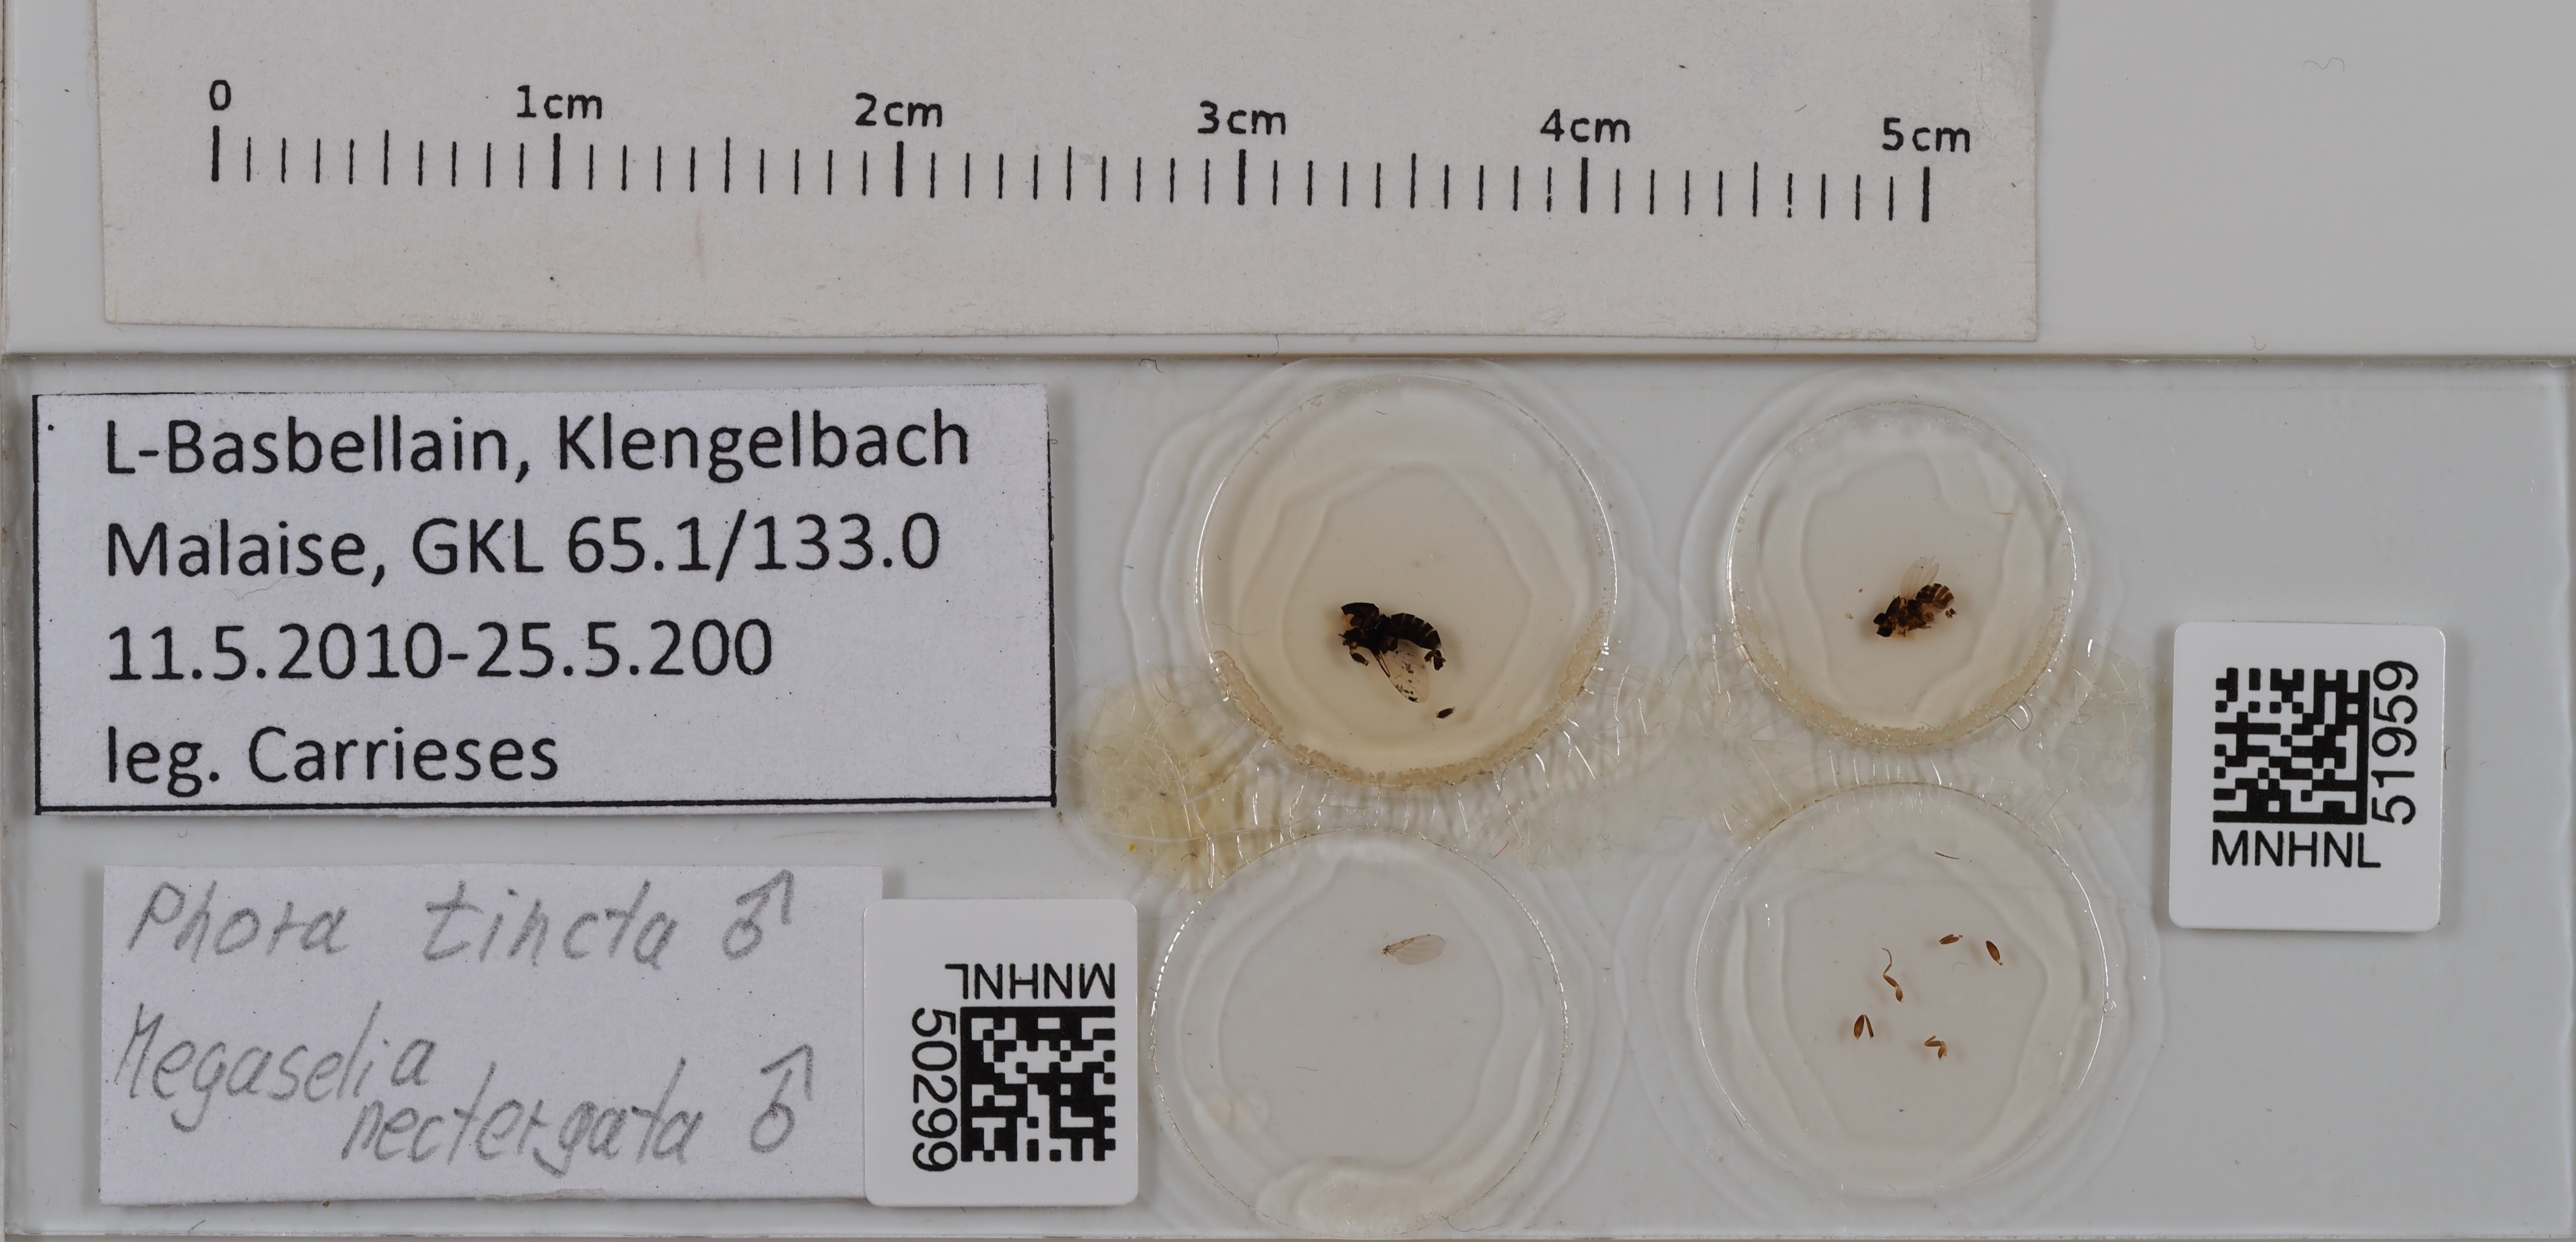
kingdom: Animalia
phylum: Arthropoda
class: Insecta
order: Diptera
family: Phoridae
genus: Phora
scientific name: Phora tincta
